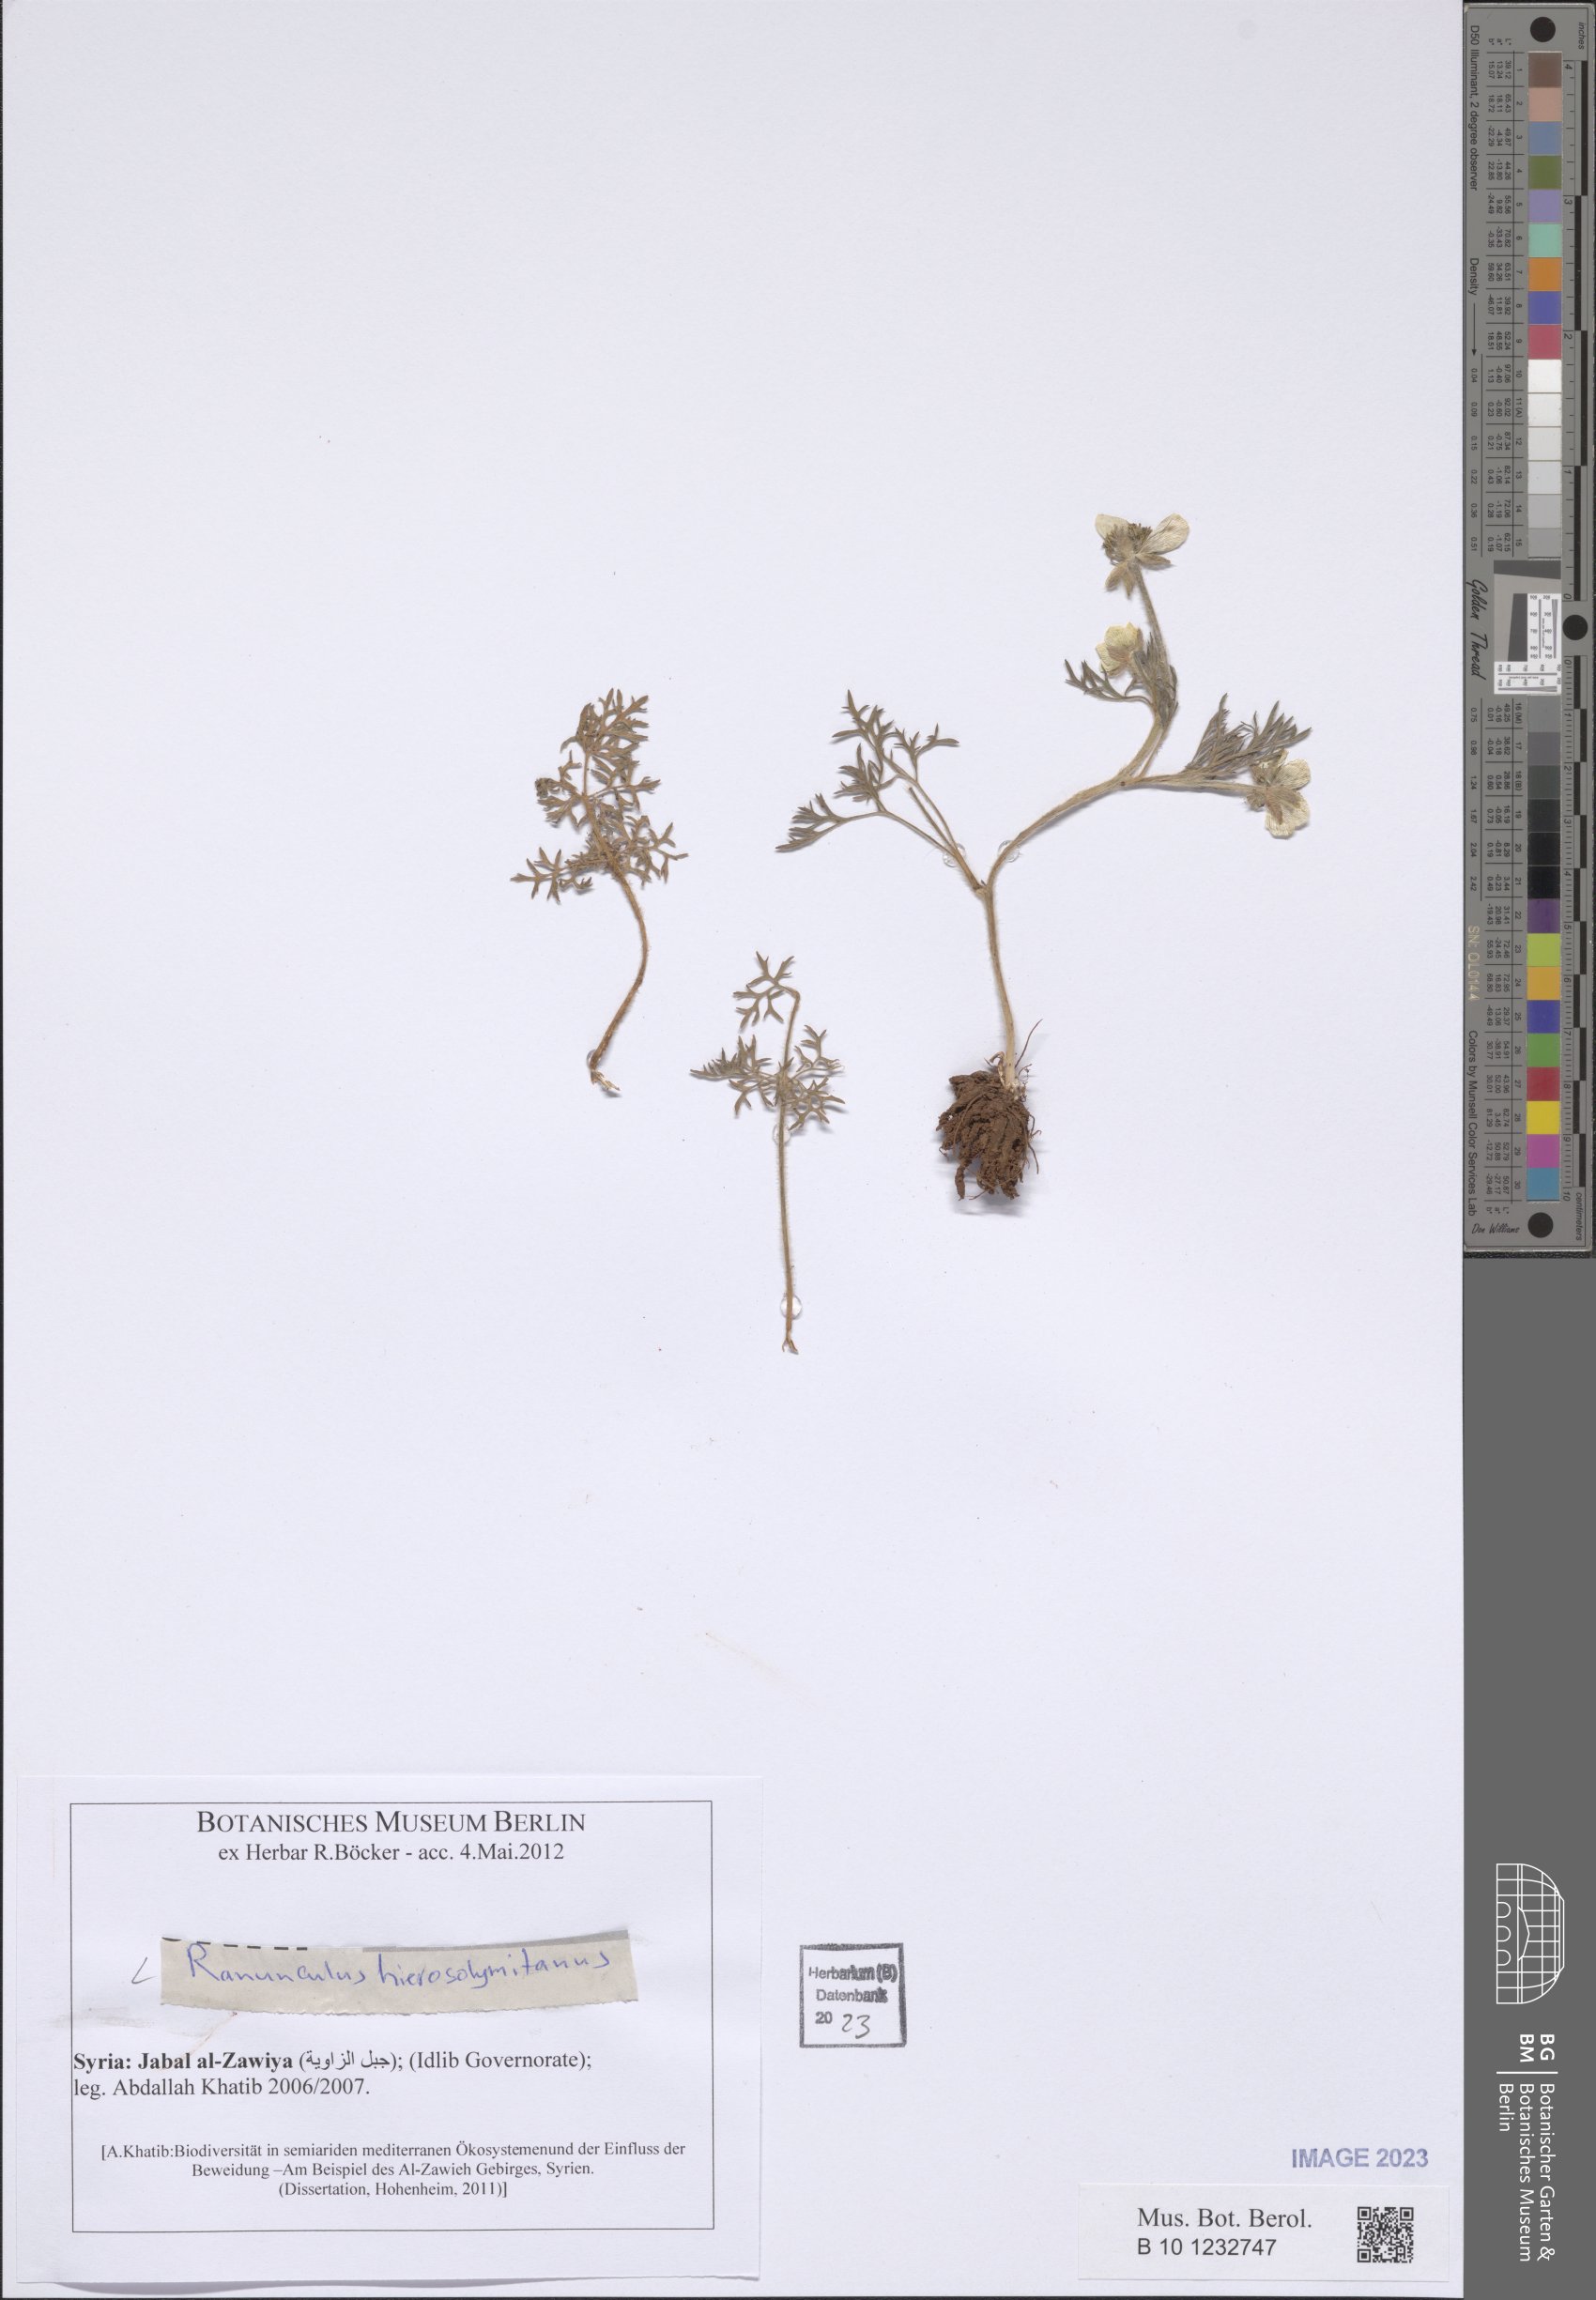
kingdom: Plantae
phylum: Tracheophyta
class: Magnoliopsida
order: Ranunculales
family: Ranunculaceae
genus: Ranunculus
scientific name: Ranunculus millefolius
